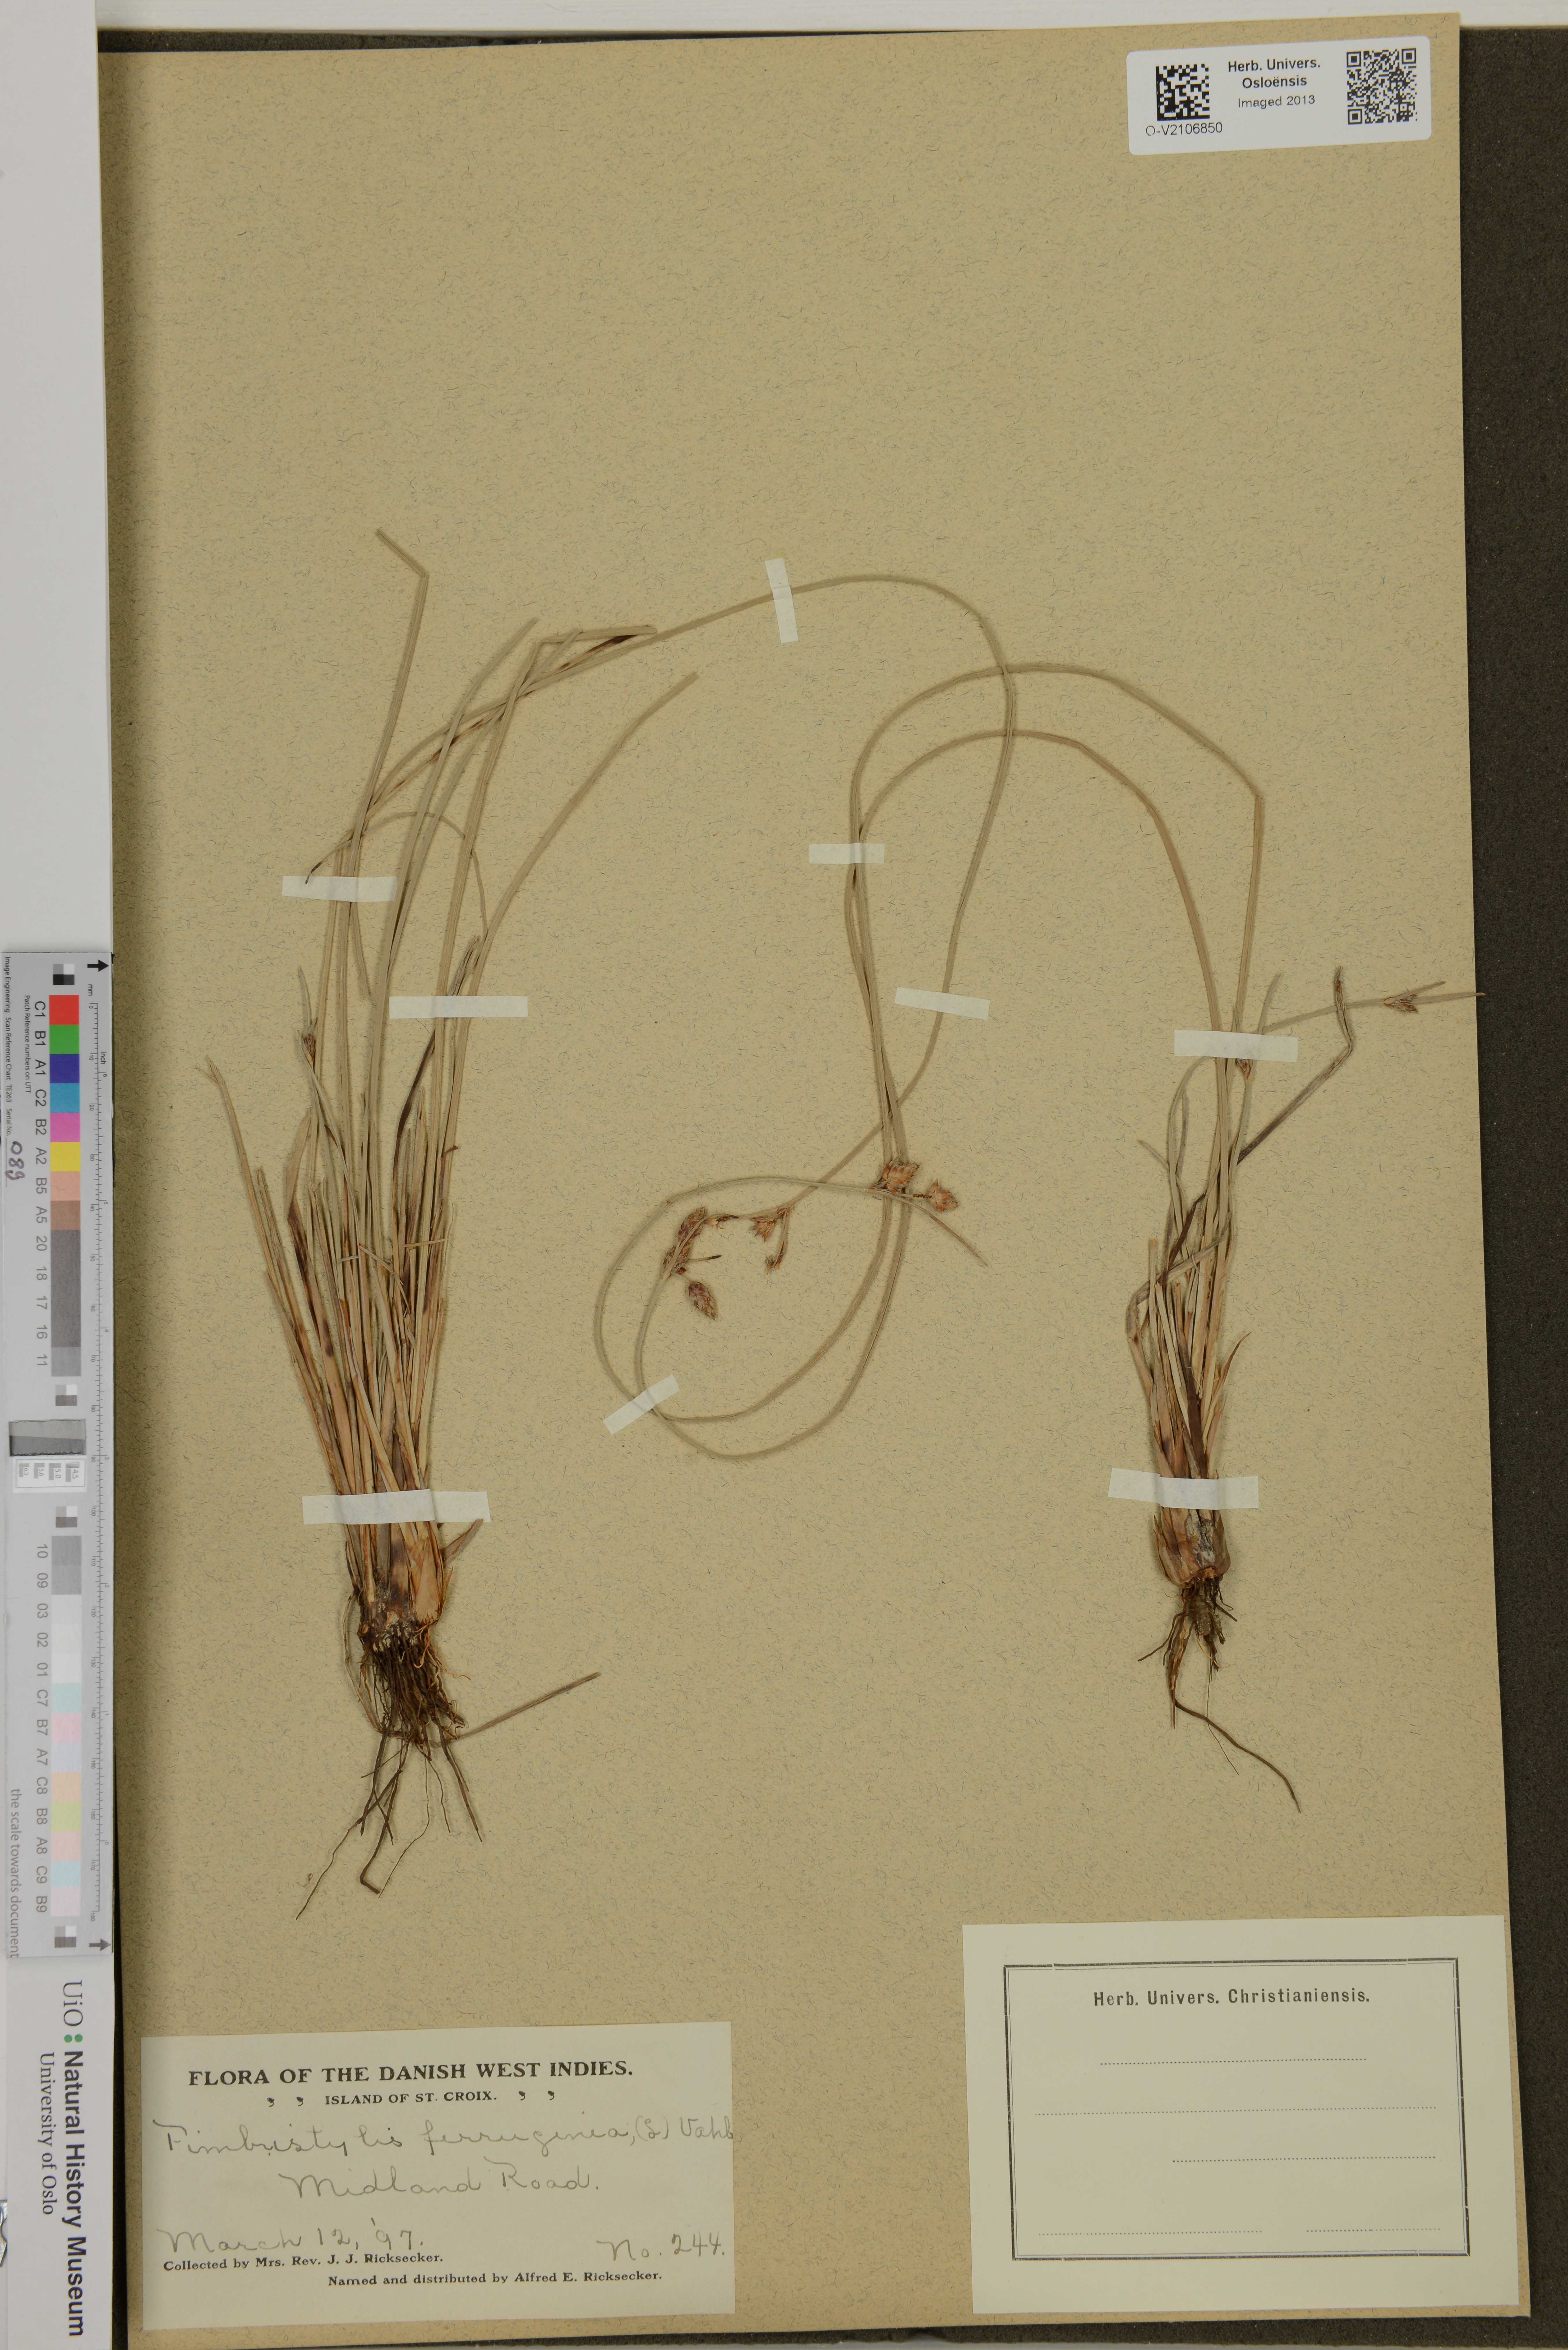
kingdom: Plantae
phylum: Tracheophyta
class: Liliopsida
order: Poales
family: Cyperaceae
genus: Fimbristylis
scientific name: Fimbristylis ferruginea
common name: West indian fimbry
